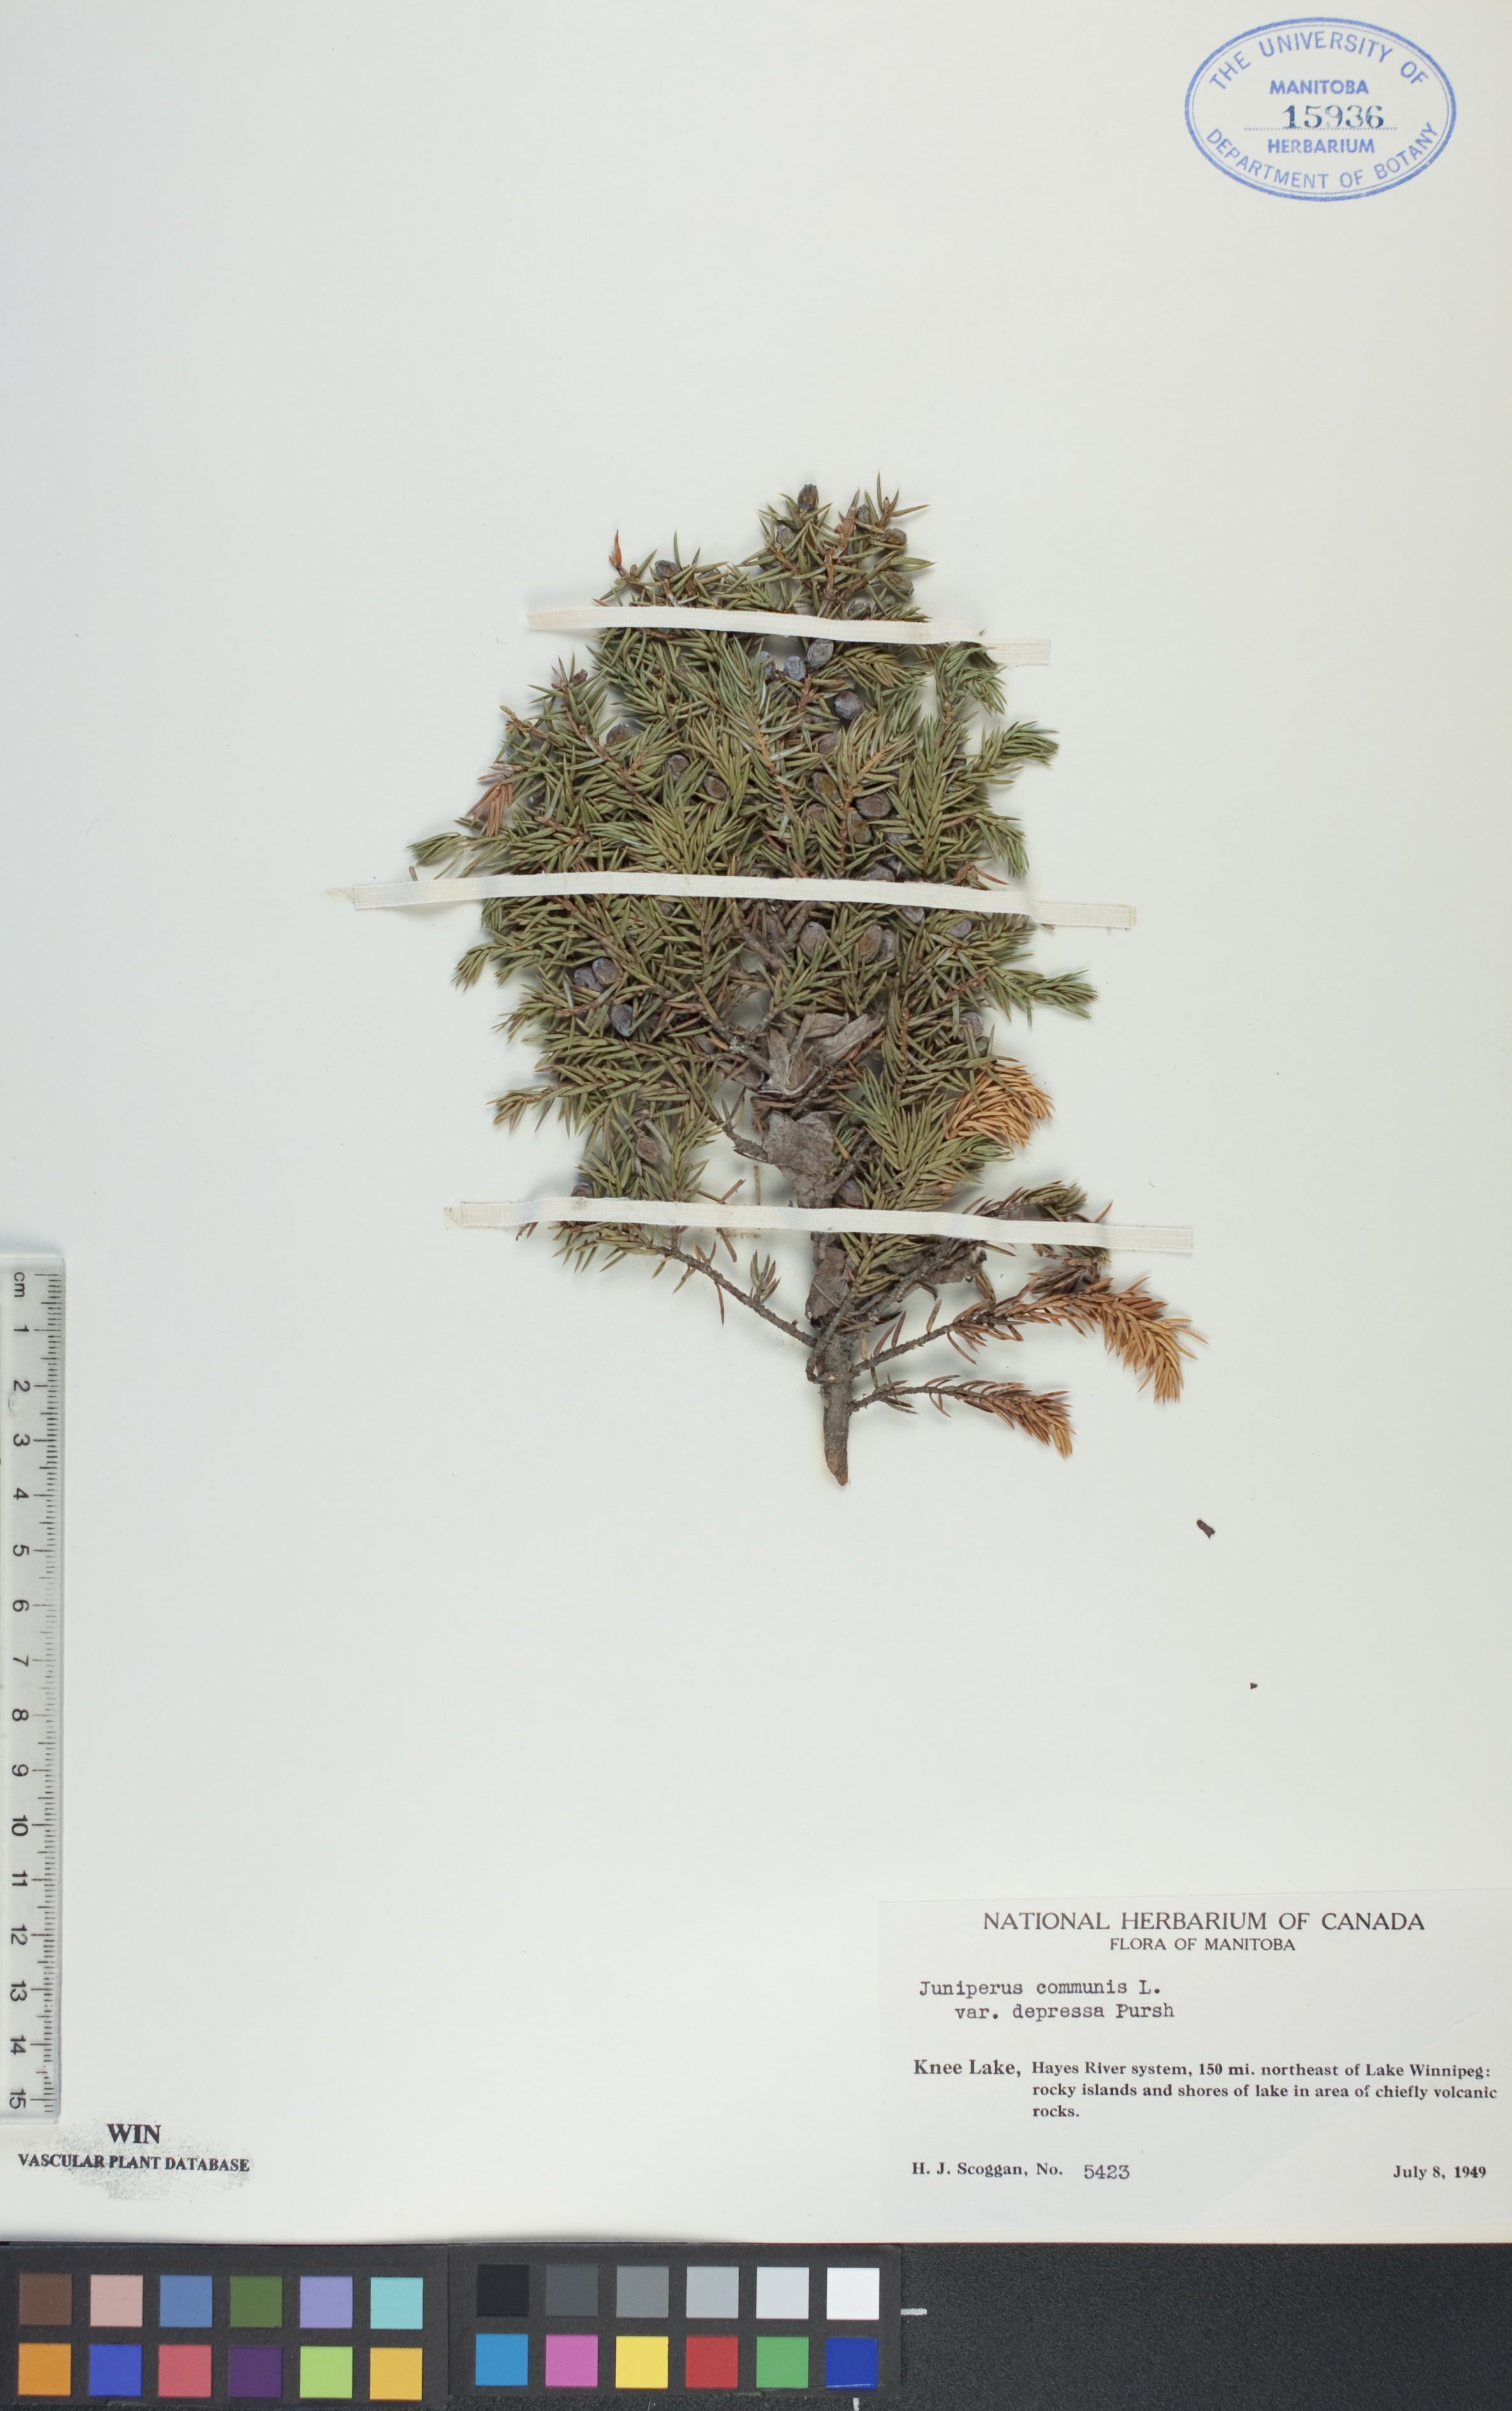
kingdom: Plantae
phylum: Tracheophyta
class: Pinopsida
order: Pinales
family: Cupressaceae
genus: Juniperus
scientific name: Juniperus communis
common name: Common juniper
